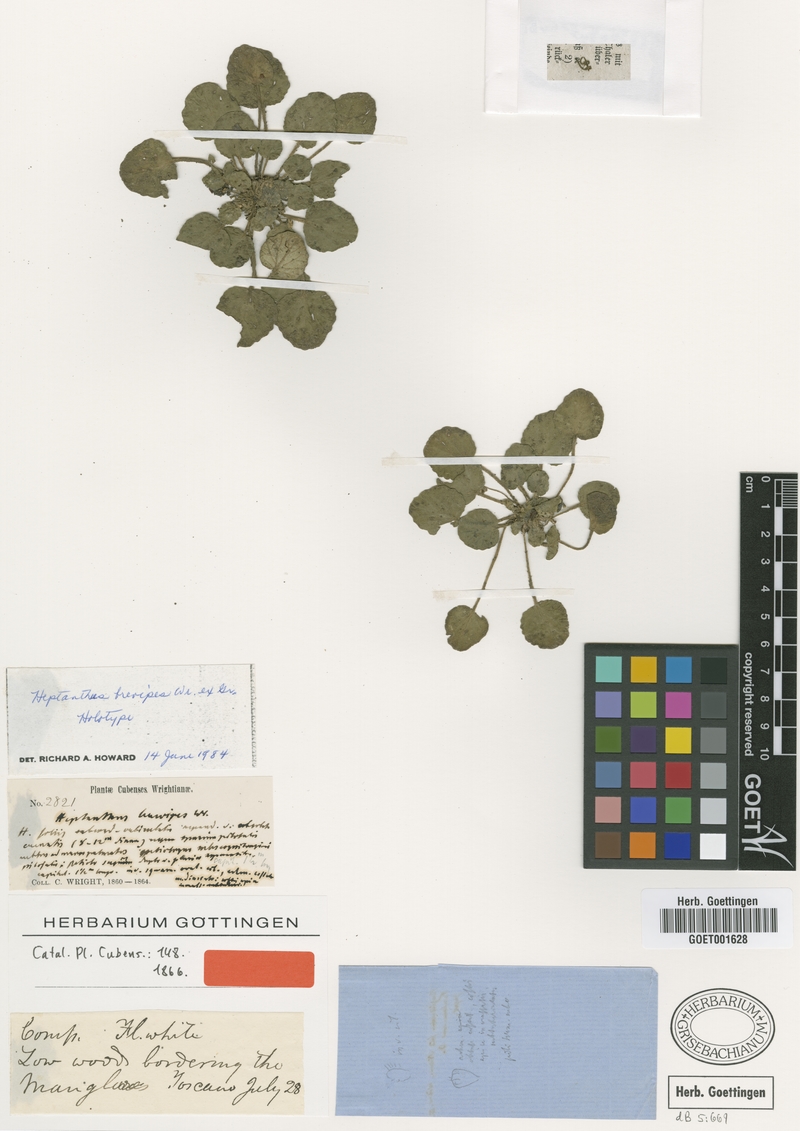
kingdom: Plantae
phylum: Tracheophyta
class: Magnoliopsida
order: Asterales
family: Asteraceae
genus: Heptanthus
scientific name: Heptanthus brevipes
